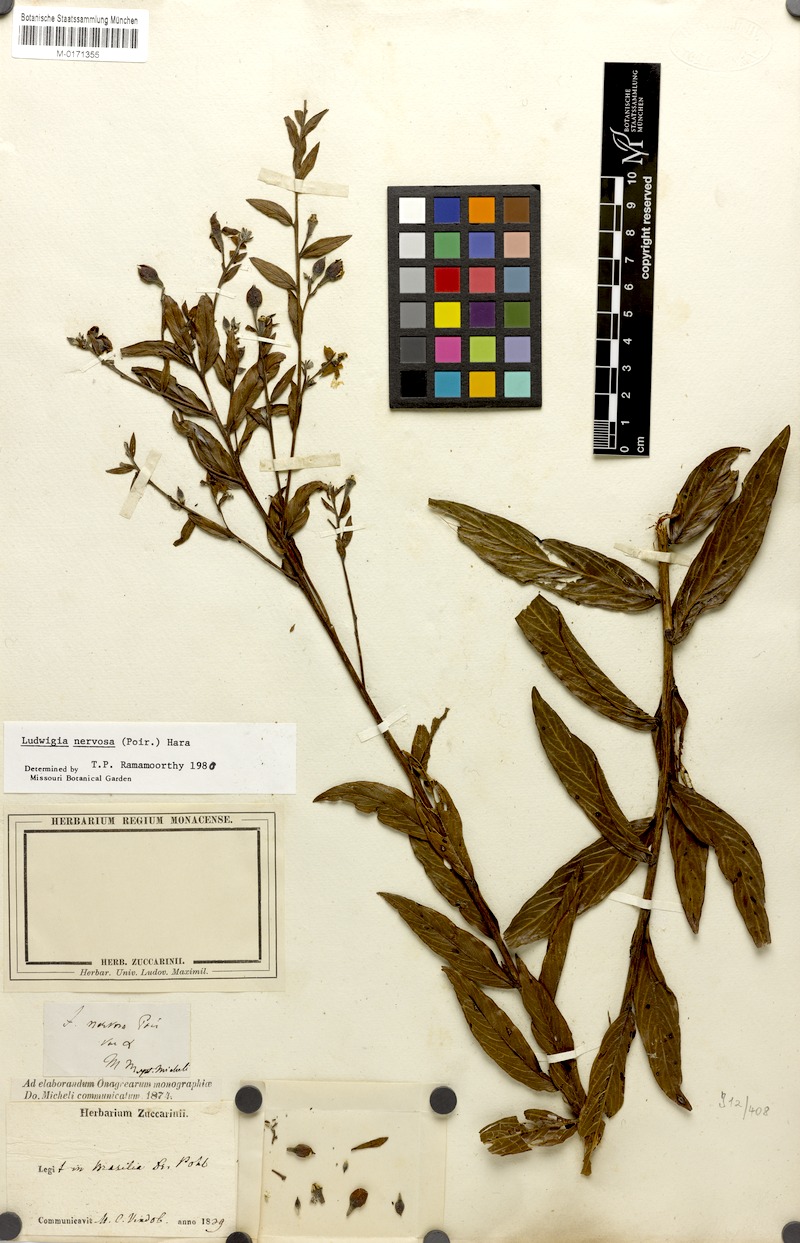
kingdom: Plantae
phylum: Tracheophyta
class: Magnoliopsida
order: Myrtales
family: Onagraceae
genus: Ludwigia
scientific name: Ludwigia nervosa
